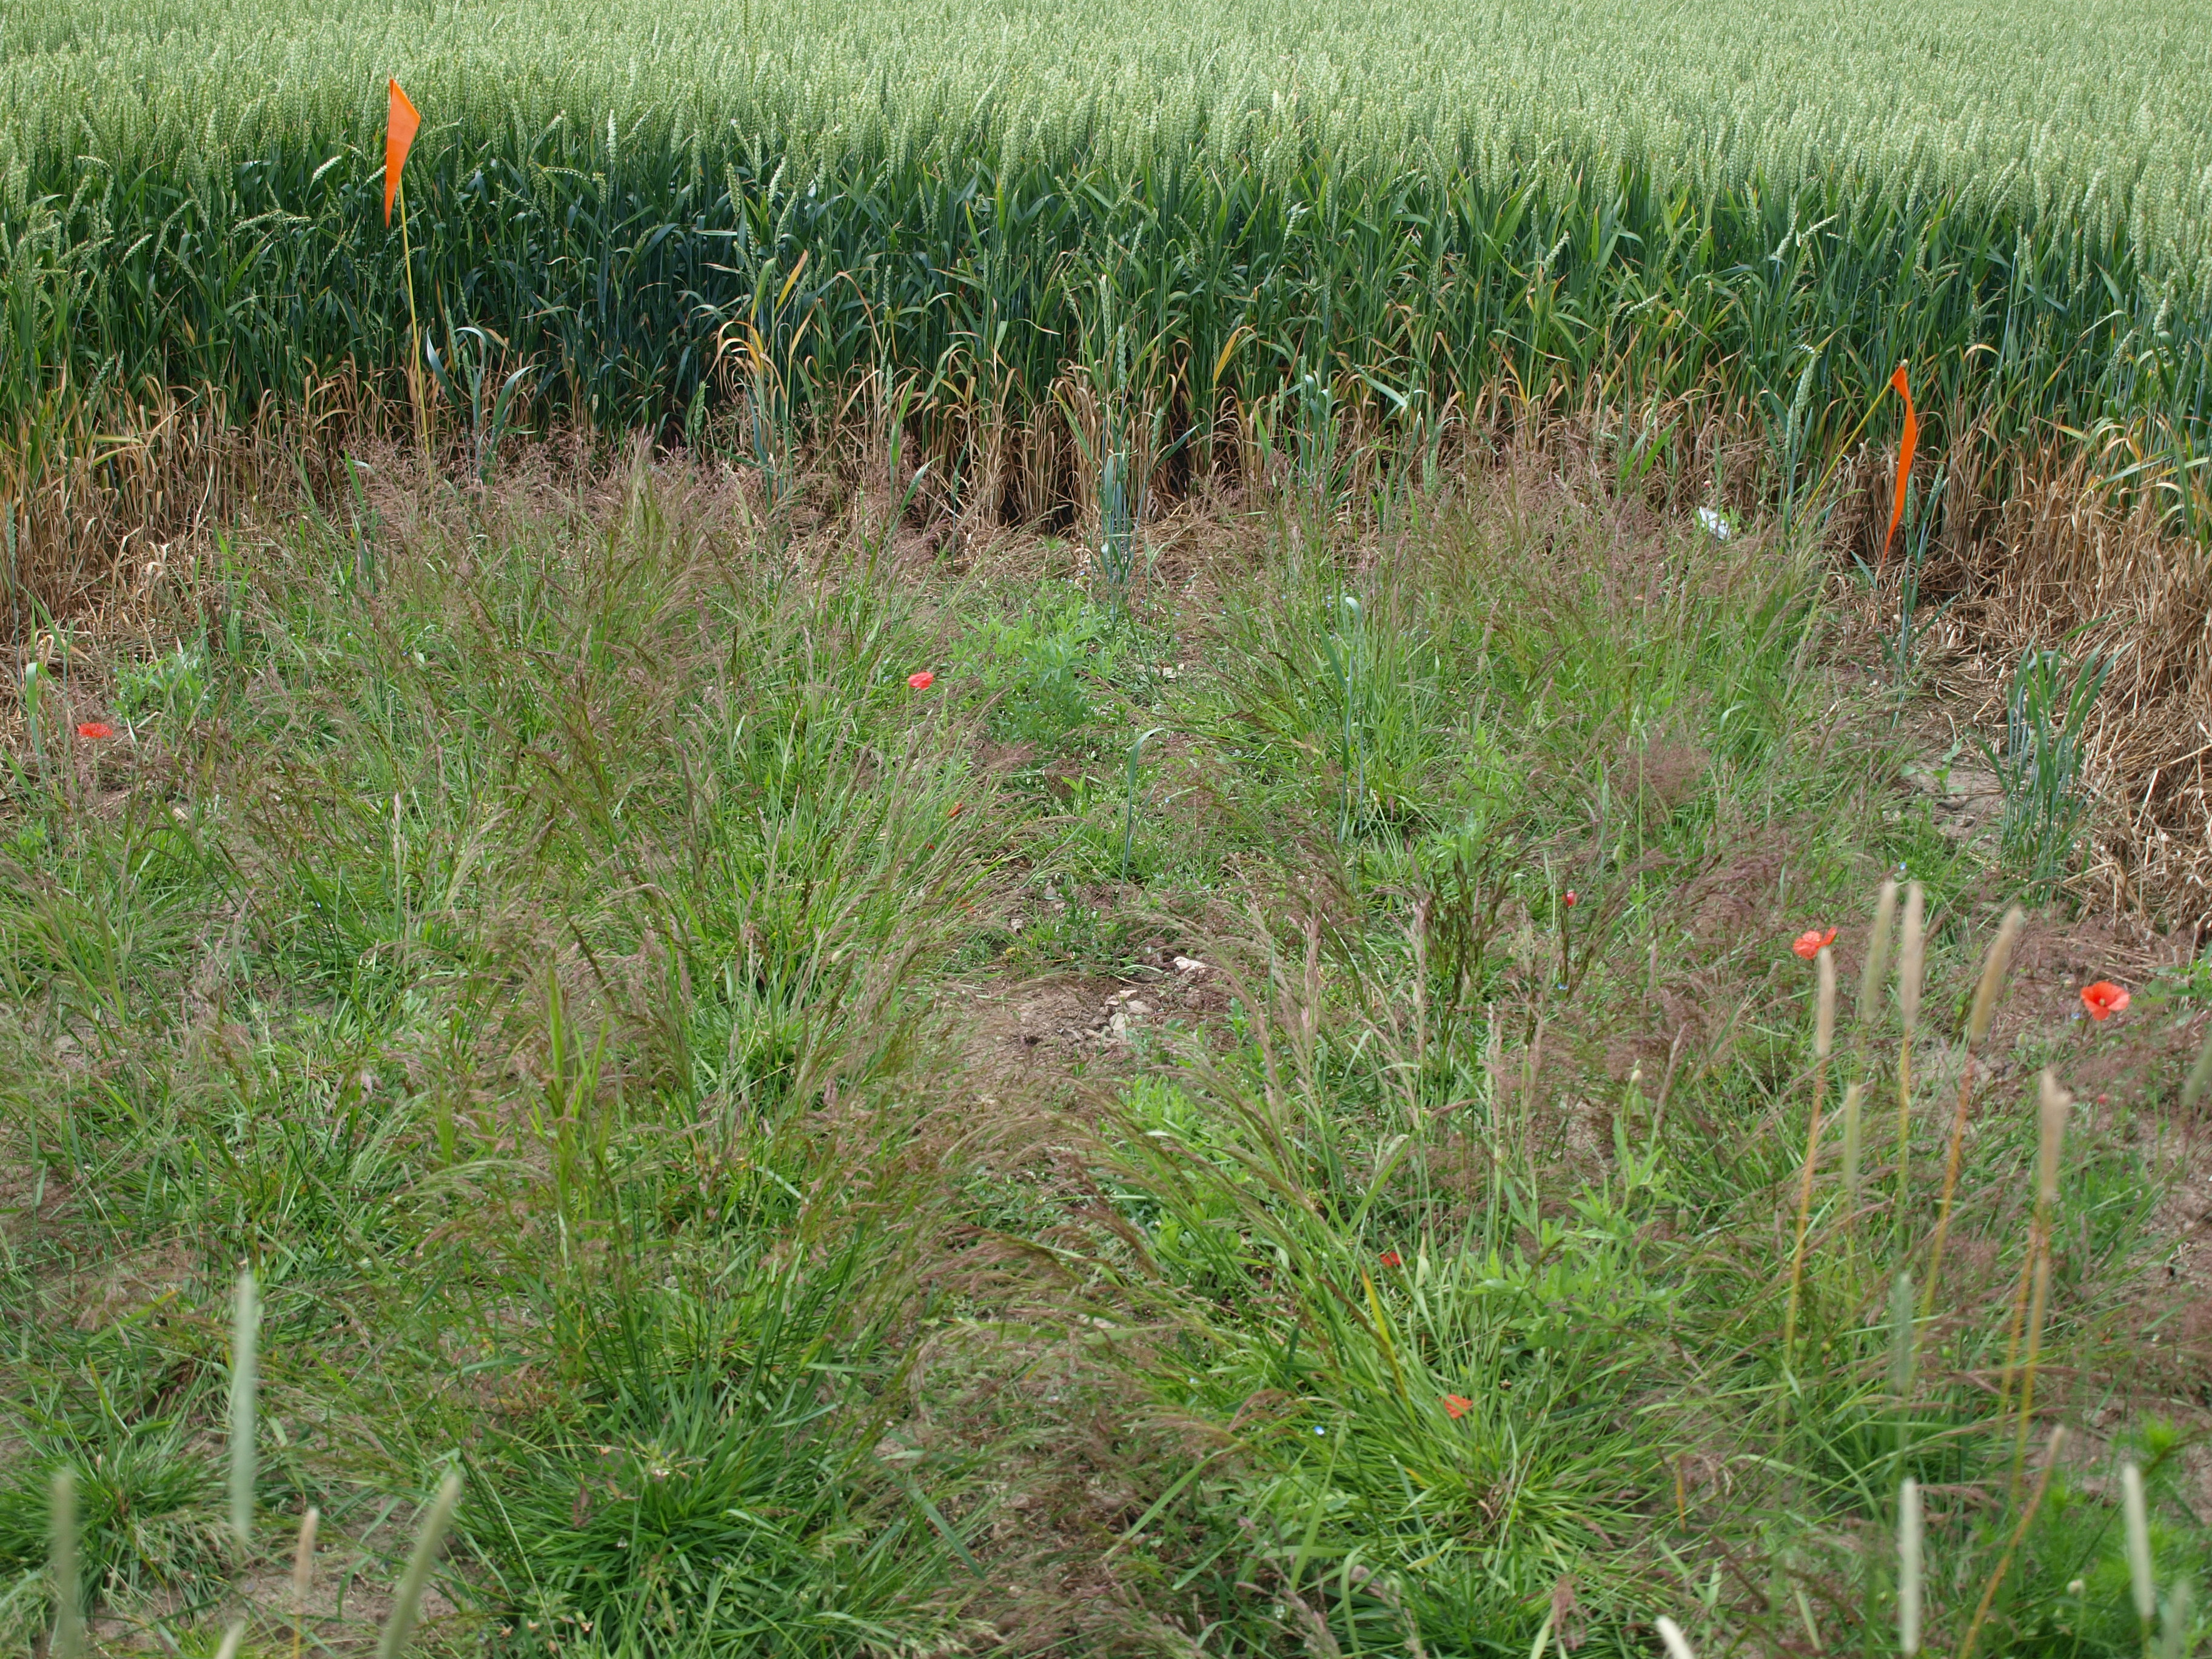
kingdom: Plantae
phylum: Tracheophyta
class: Liliopsida
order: Poales
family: Poaceae
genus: Agrostis
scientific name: Agrostis capillaris
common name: Colonial bentgrass
